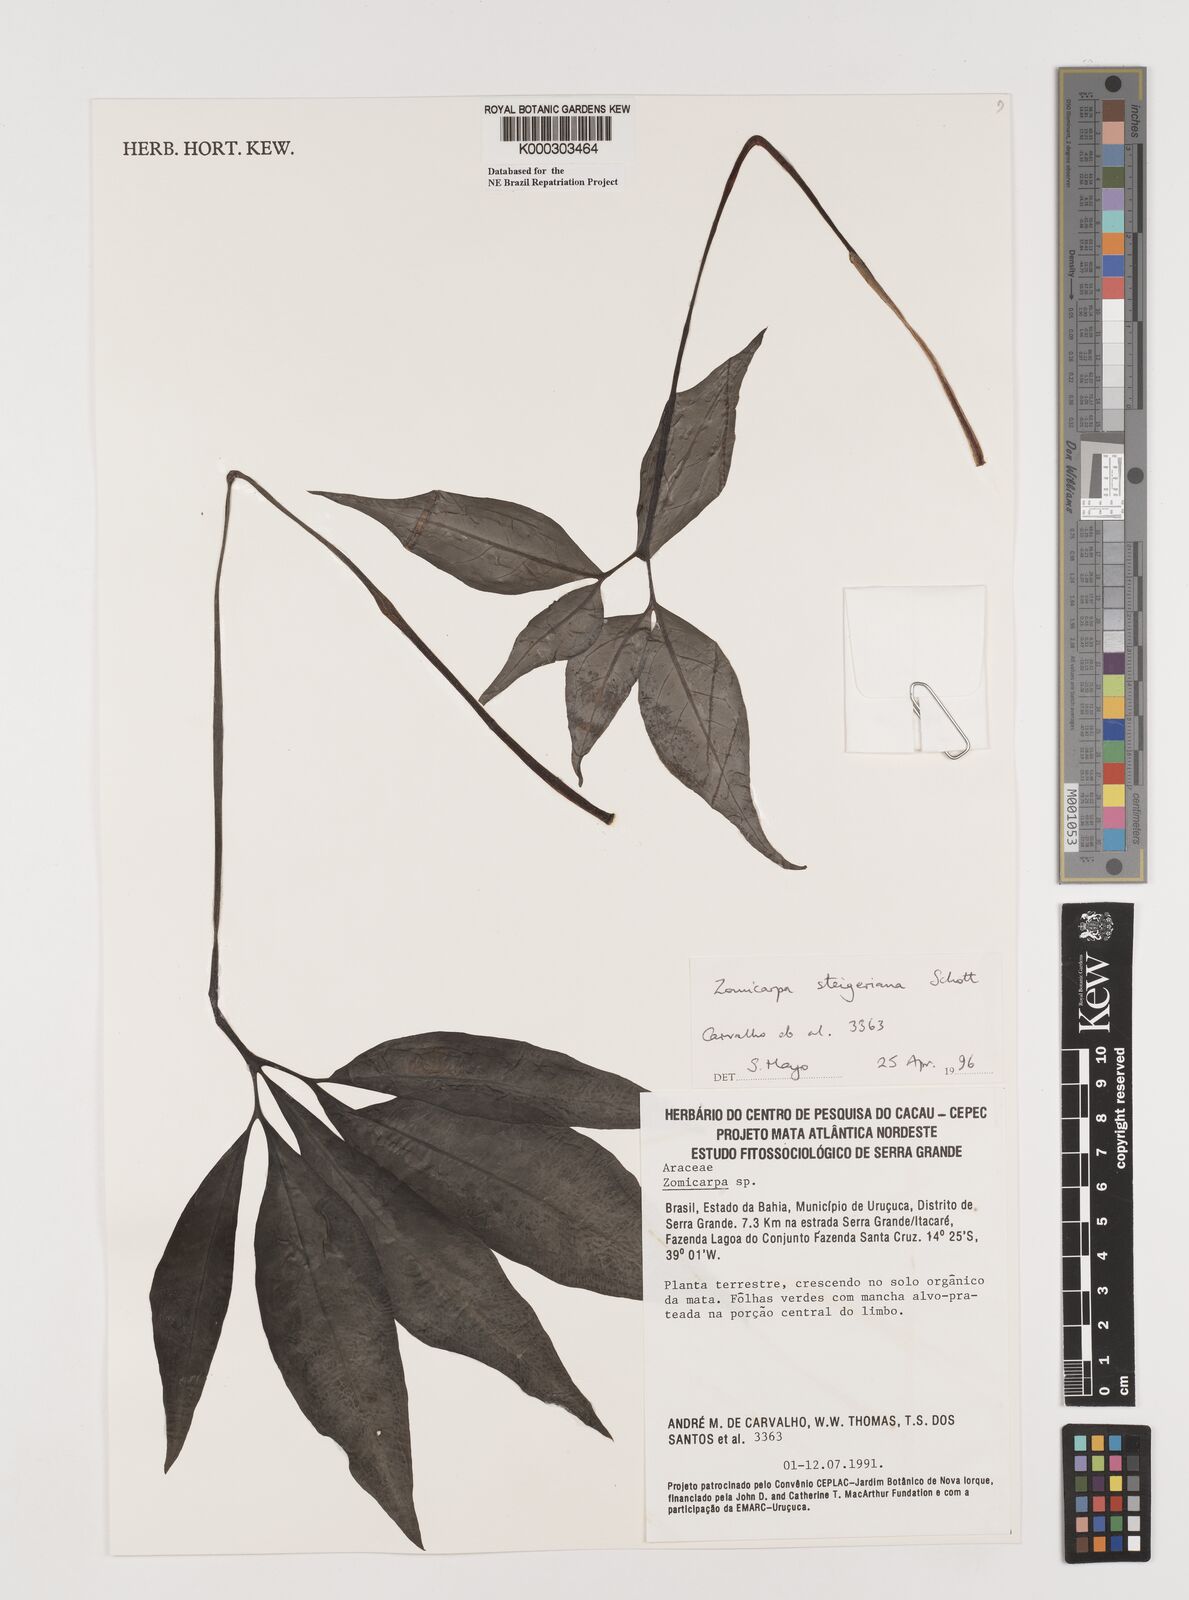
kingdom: Plantae
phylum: Tracheophyta
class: Liliopsida
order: Alismatales
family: Araceae
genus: Zomicarpa
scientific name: Zomicarpa steigeriana
